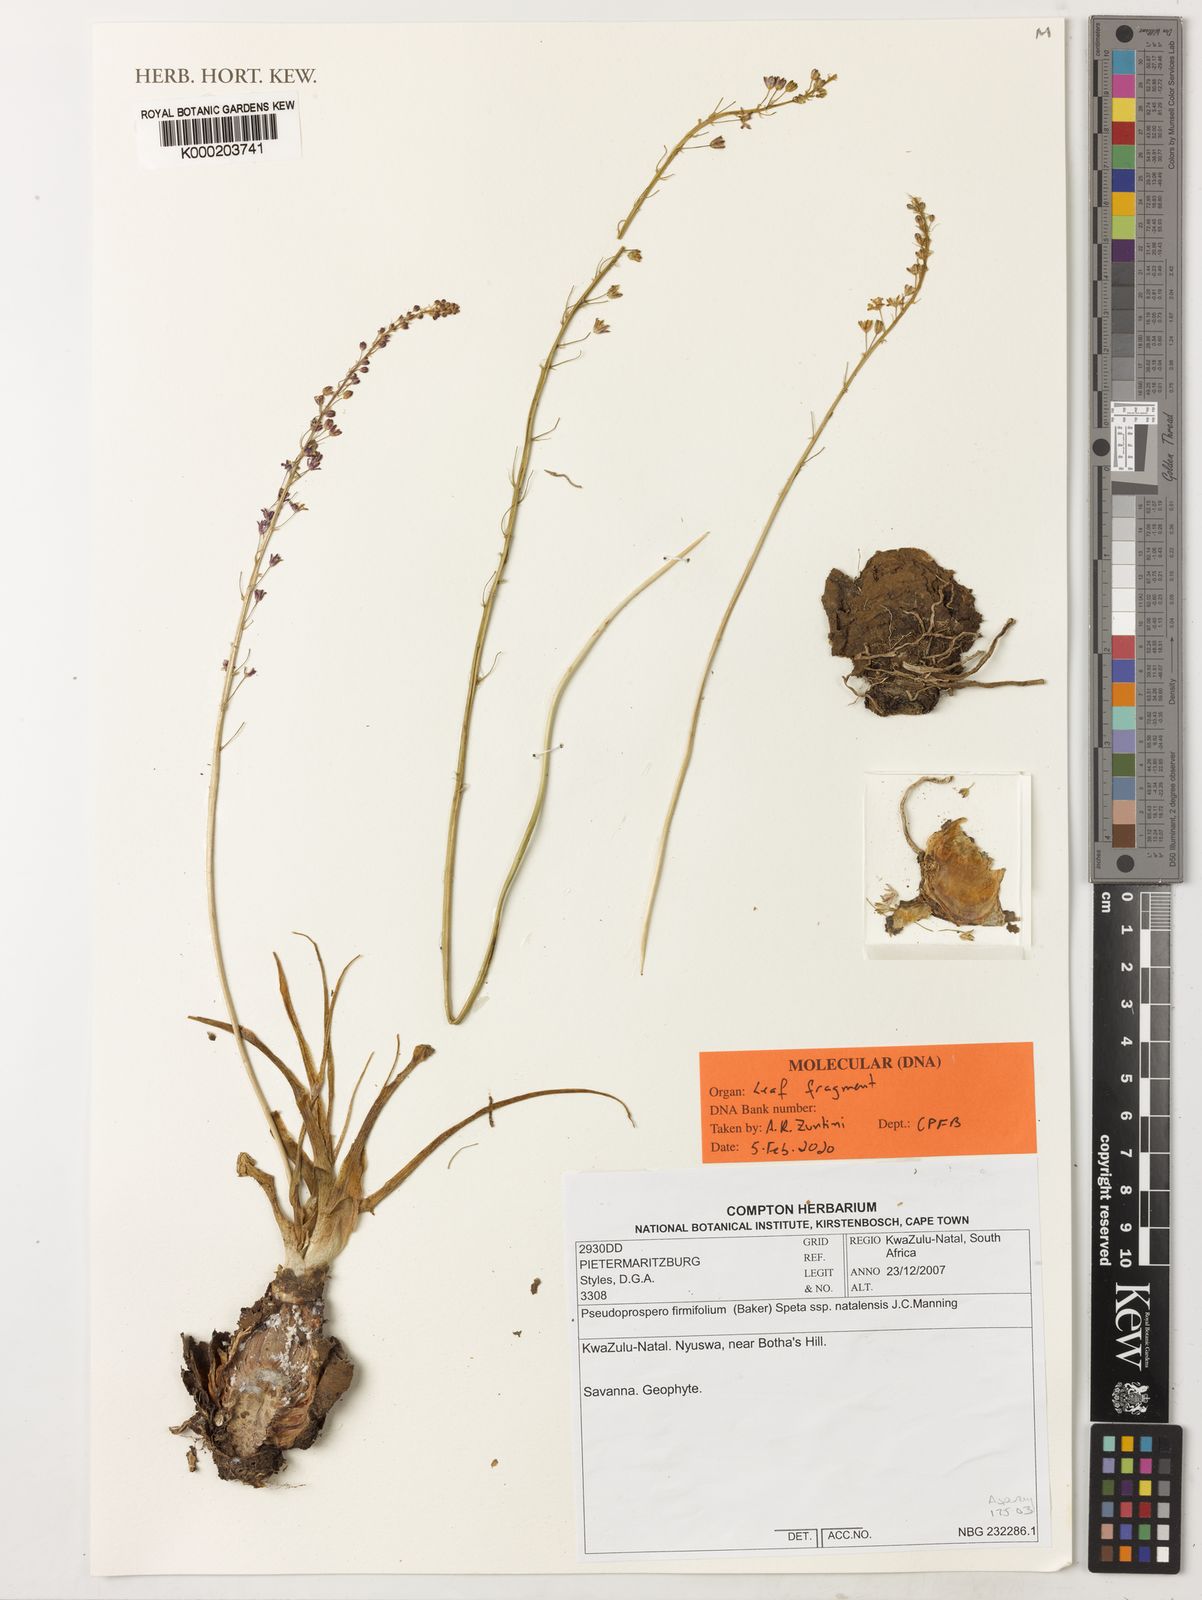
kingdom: Plantae
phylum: Tracheophyta
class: Liliopsida
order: Asparagales
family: Asparagaceae
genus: Pseudoprospero
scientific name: Pseudoprospero firmifolium
